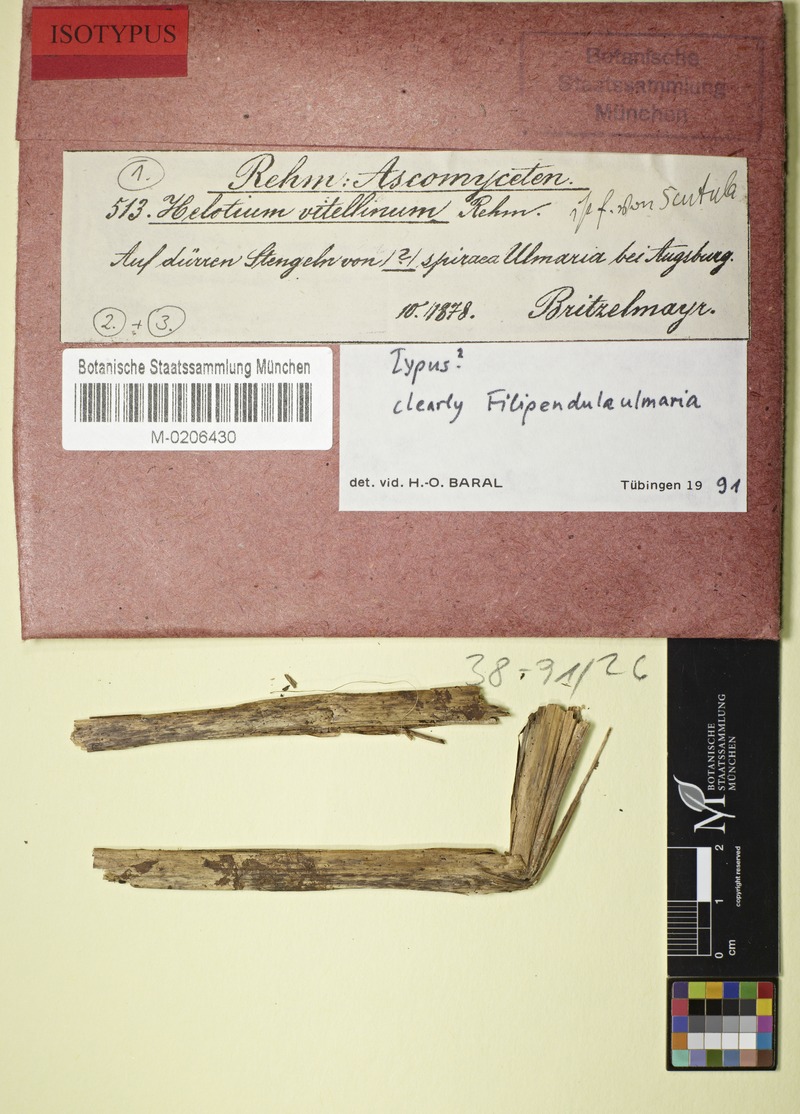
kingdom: Fungi
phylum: Ascomycota
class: Leotiomycetes
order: Helotiales
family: Helotiaceae
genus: Hymenoscyphus
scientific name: Hymenoscyphus vitellinus
